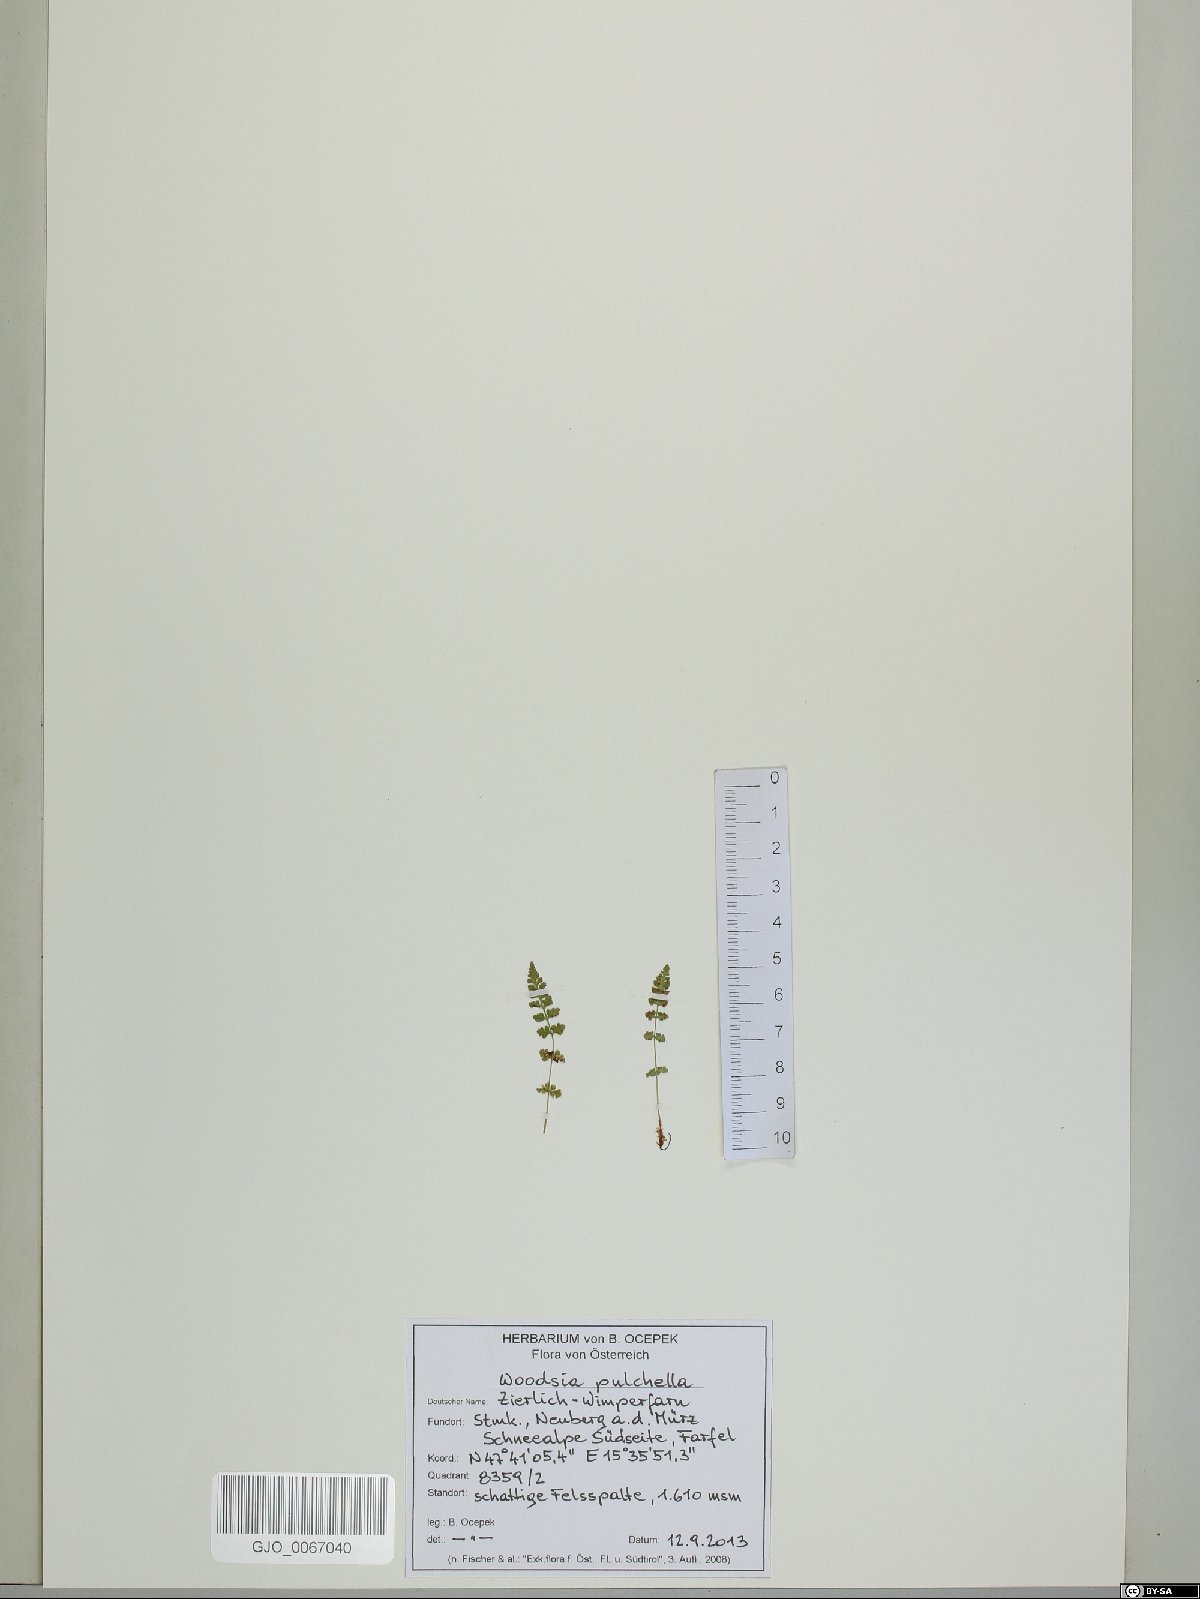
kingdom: Plantae
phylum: Tracheophyta
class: Polypodiopsida
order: Polypodiales
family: Woodsiaceae
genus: Woodsia
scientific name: Woodsia pulchella
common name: Graceful woodsia
